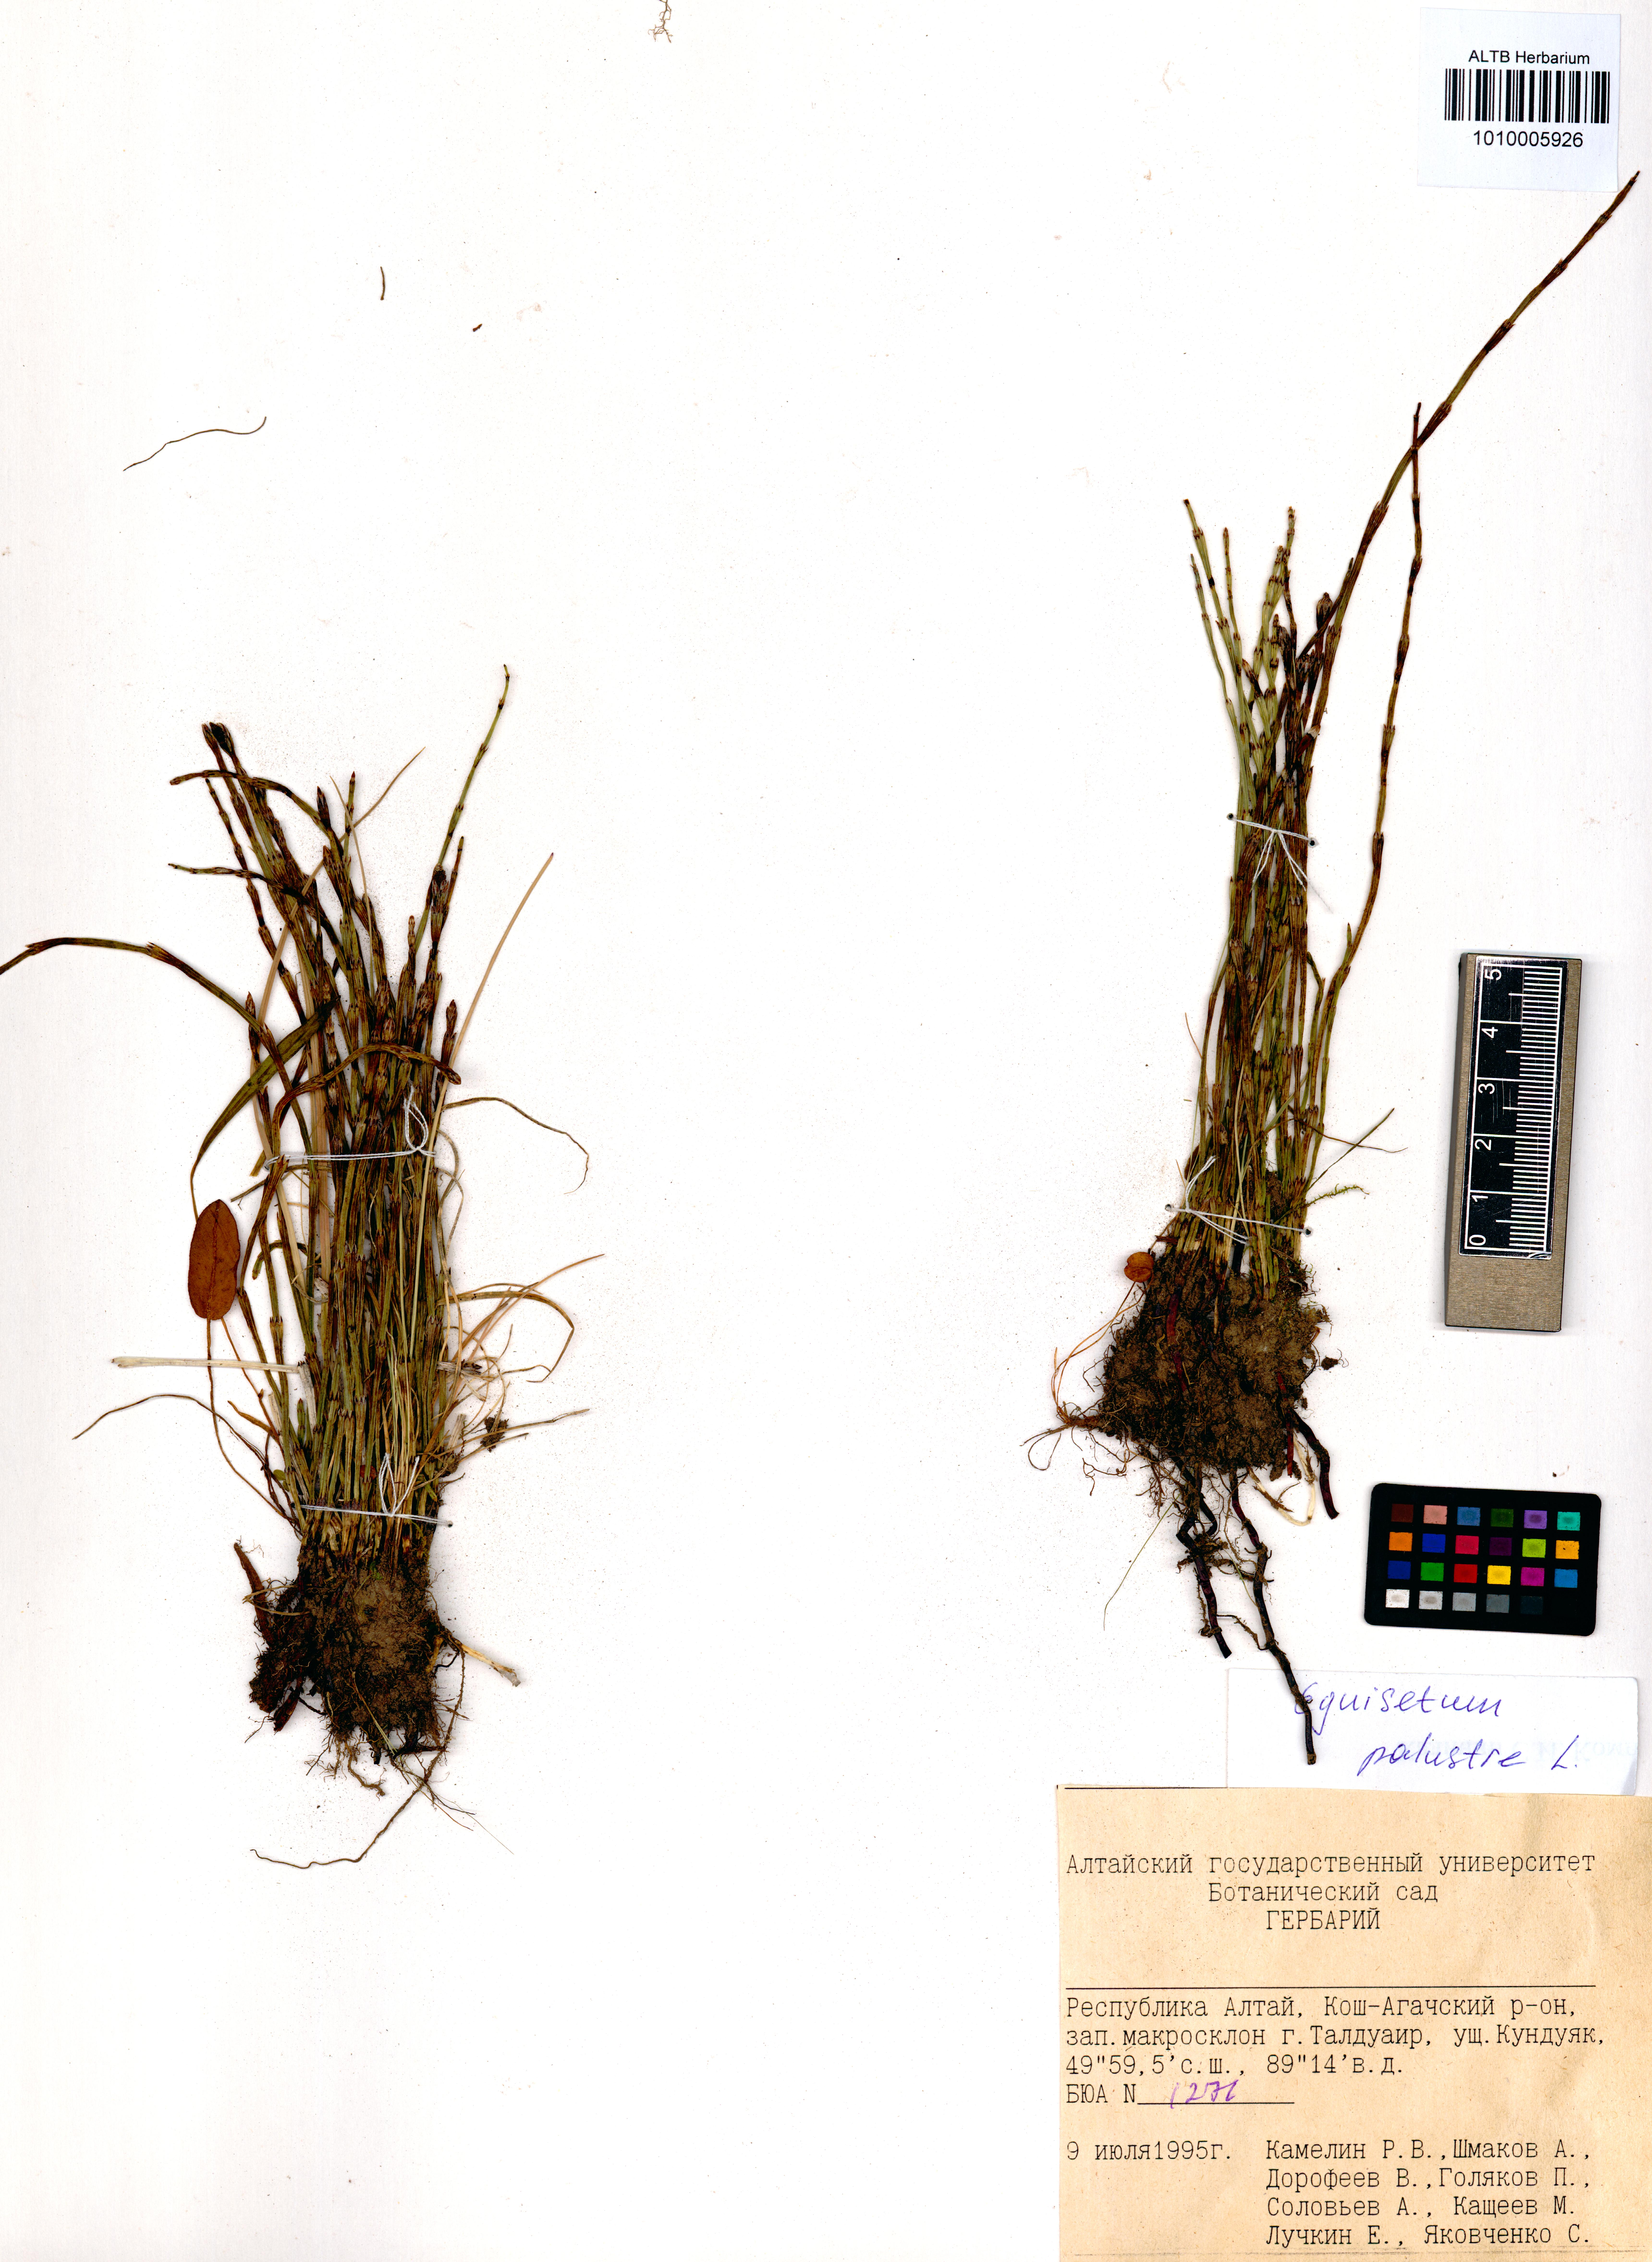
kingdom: Plantae
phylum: Tracheophyta
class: Polypodiopsida
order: Equisetales
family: Equisetaceae
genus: Equisetum
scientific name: Equisetum palustre
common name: Marsh horsetail
